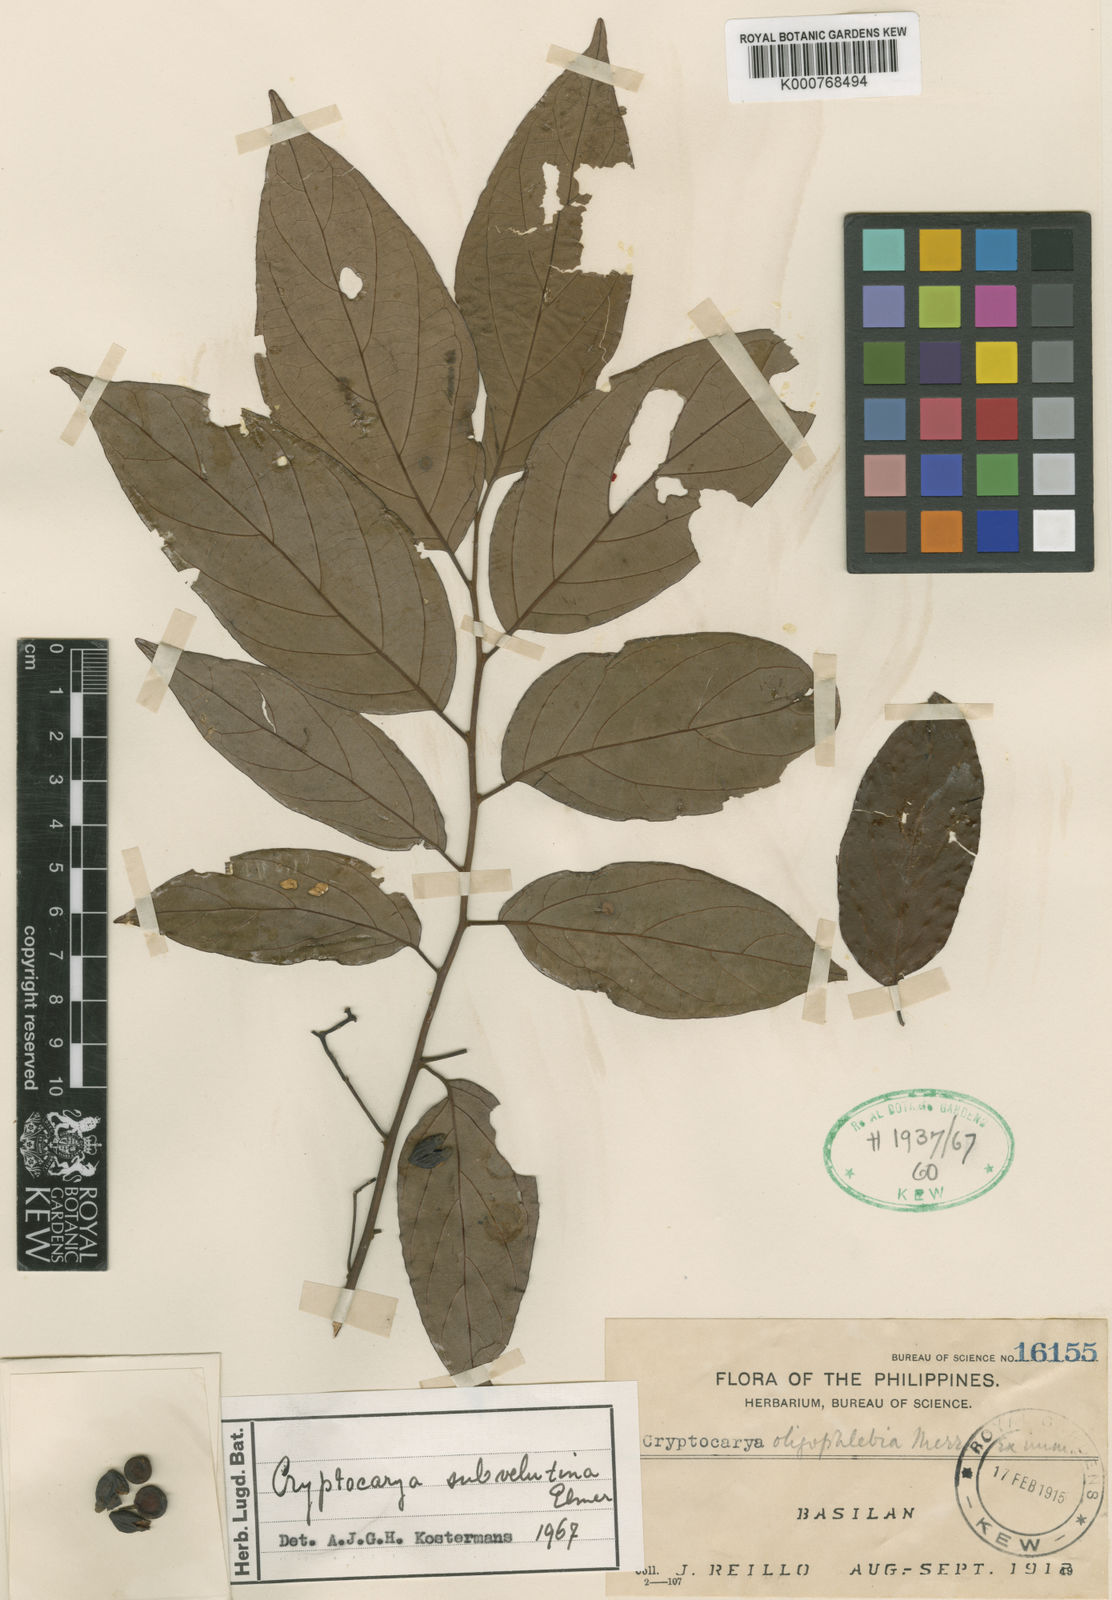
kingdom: Plantae
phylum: Tracheophyta
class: Magnoliopsida
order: Laurales
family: Lauraceae
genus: Cryptocarya
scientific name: Cryptocarya subvelutina
